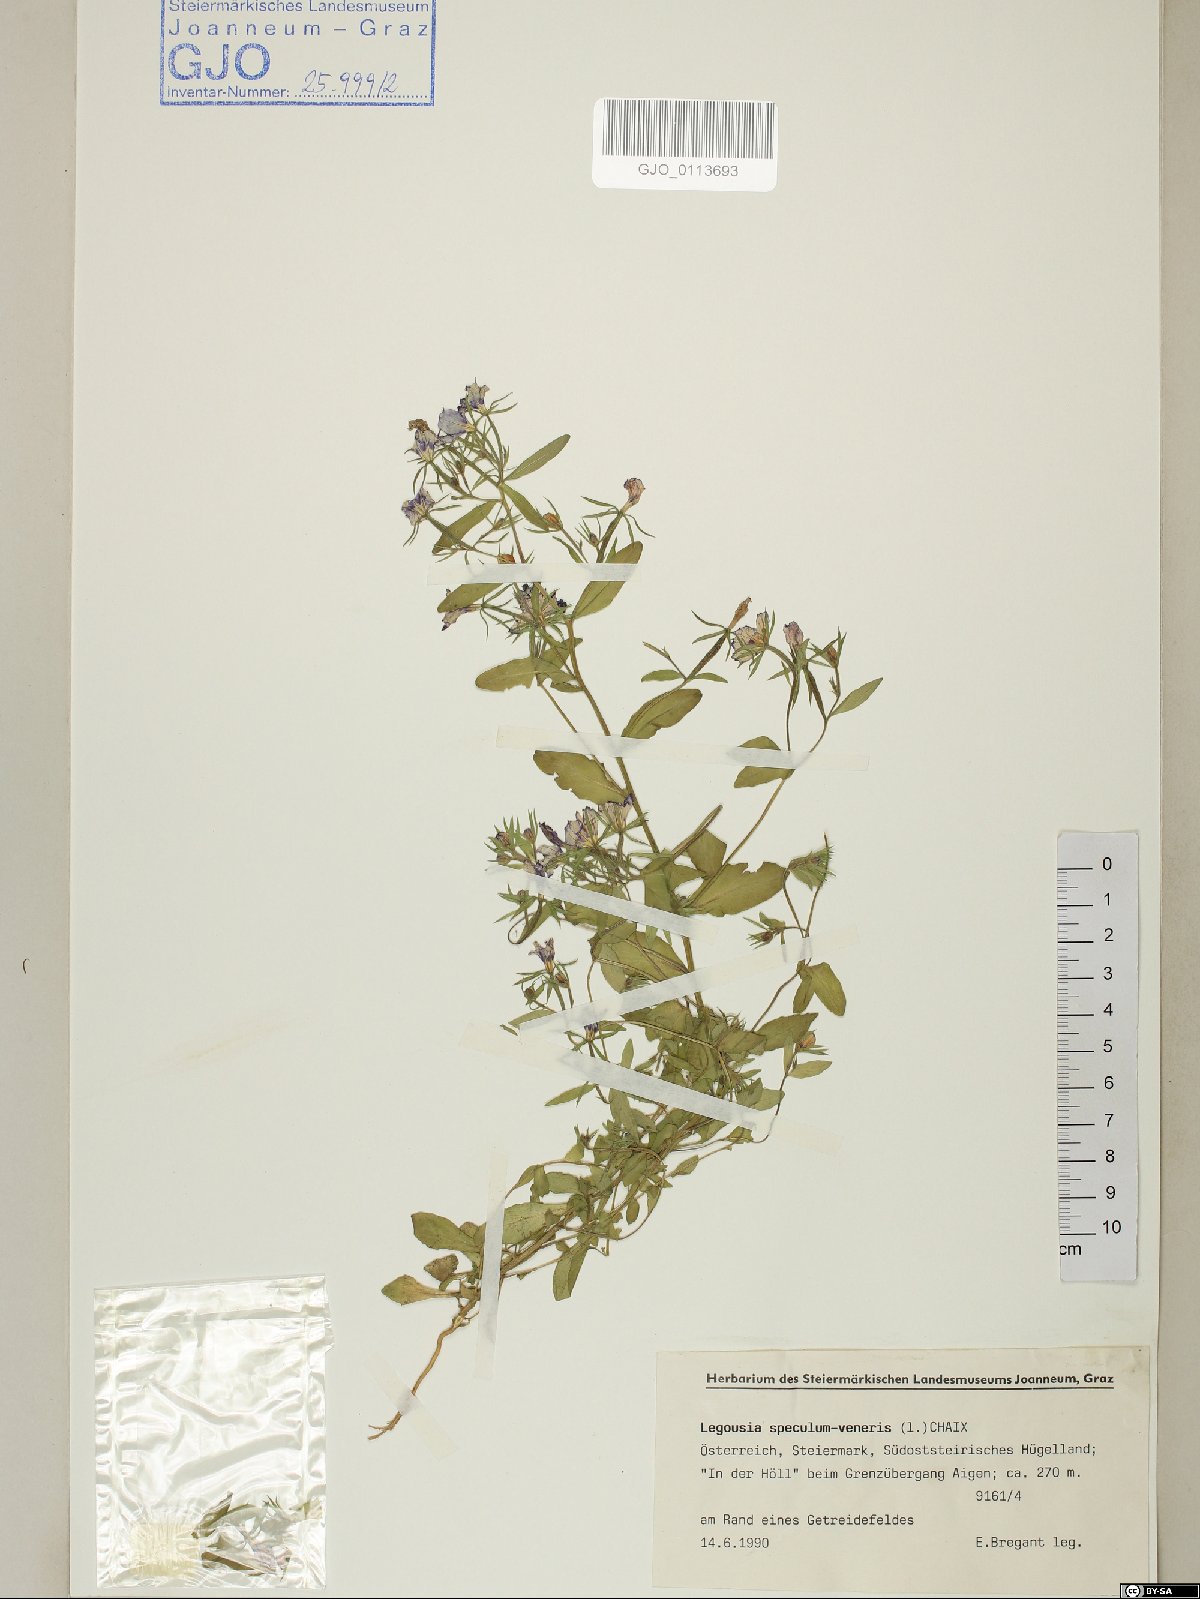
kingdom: Plantae
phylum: Tracheophyta
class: Magnoliopsida
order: Asterales
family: Campanulaceae
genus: Legousia
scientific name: Legousia speculum-veneris
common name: Large venus's-looking-glass
